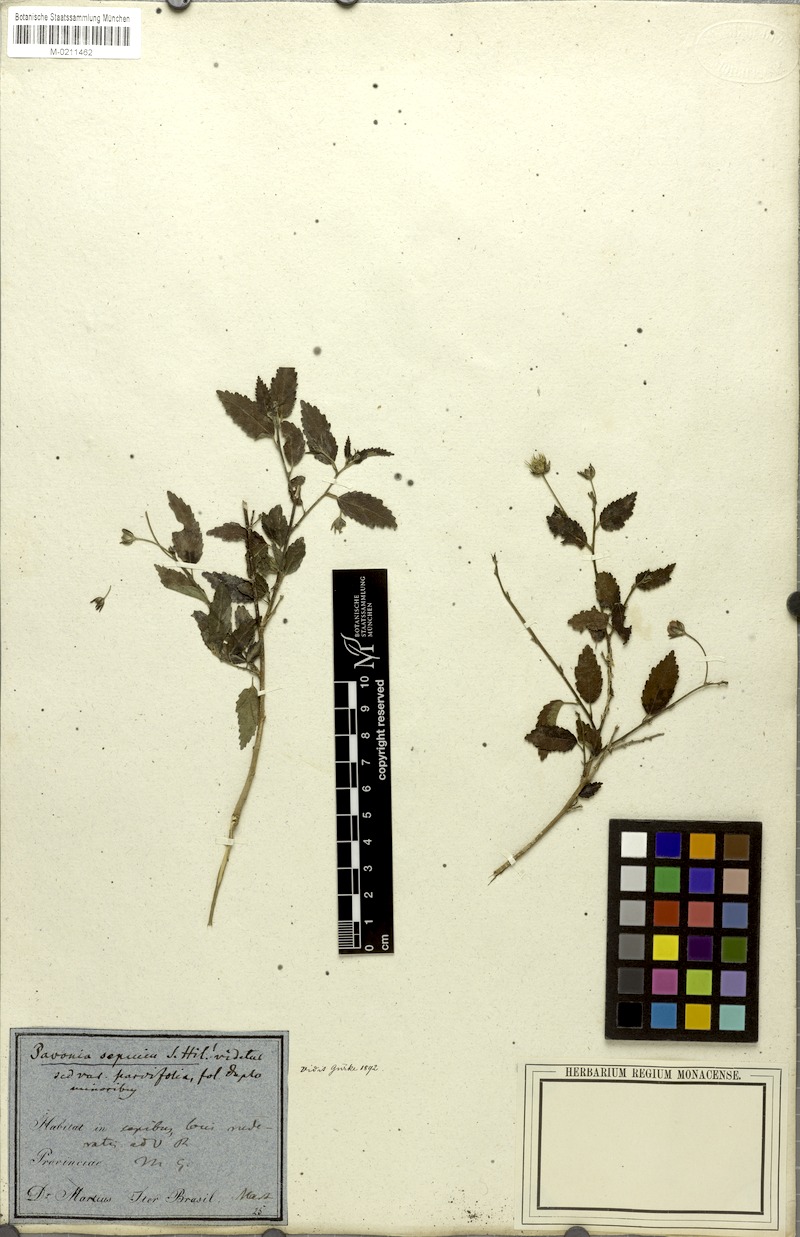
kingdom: Plantae
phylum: Tracheophyta
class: Magnoliopsida
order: Malvales
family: Malvaceae
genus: Pavonia
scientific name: Pavonia sepium
